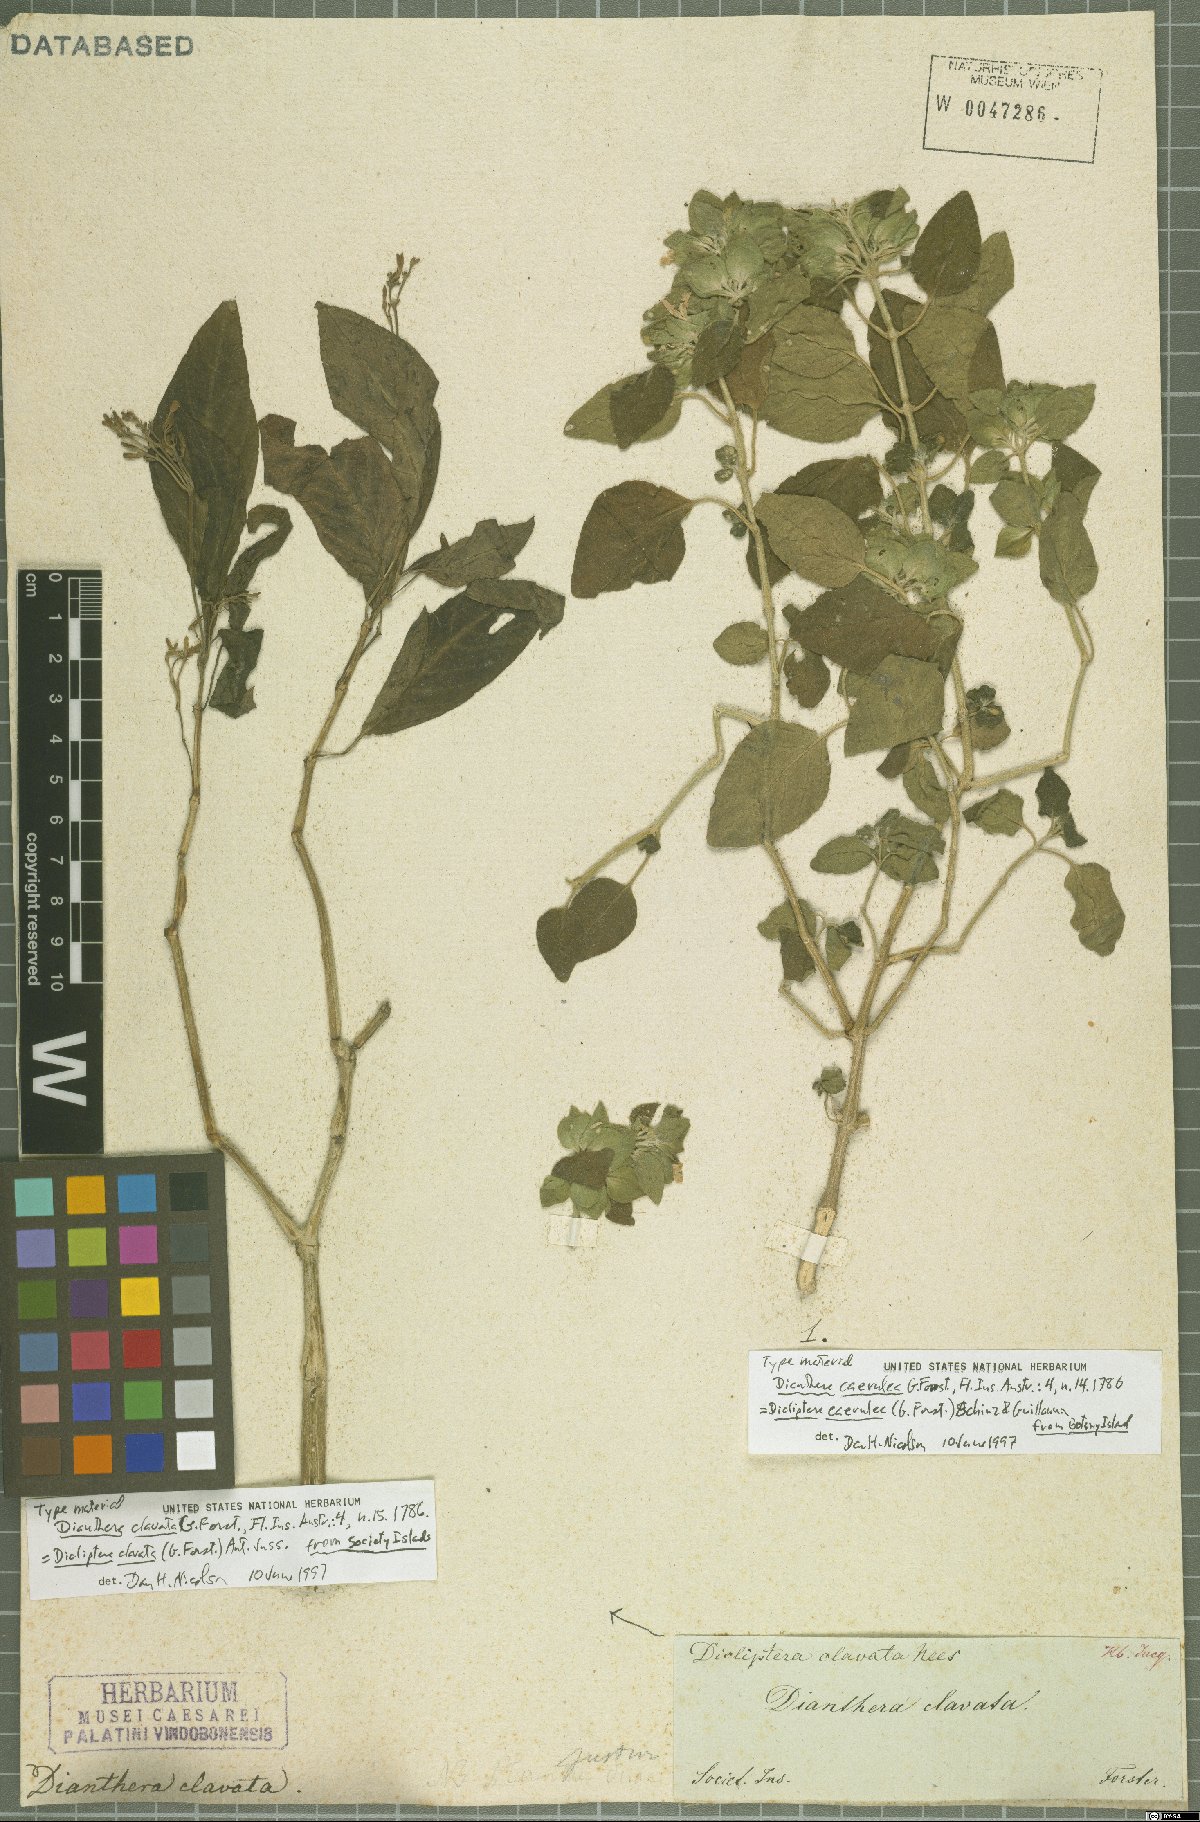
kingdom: Plantae
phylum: Tracheophyta
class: Magnoliopsida
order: Lamiales
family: Acanthaceae
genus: Dicliptera
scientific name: Dicliptera caerulea
